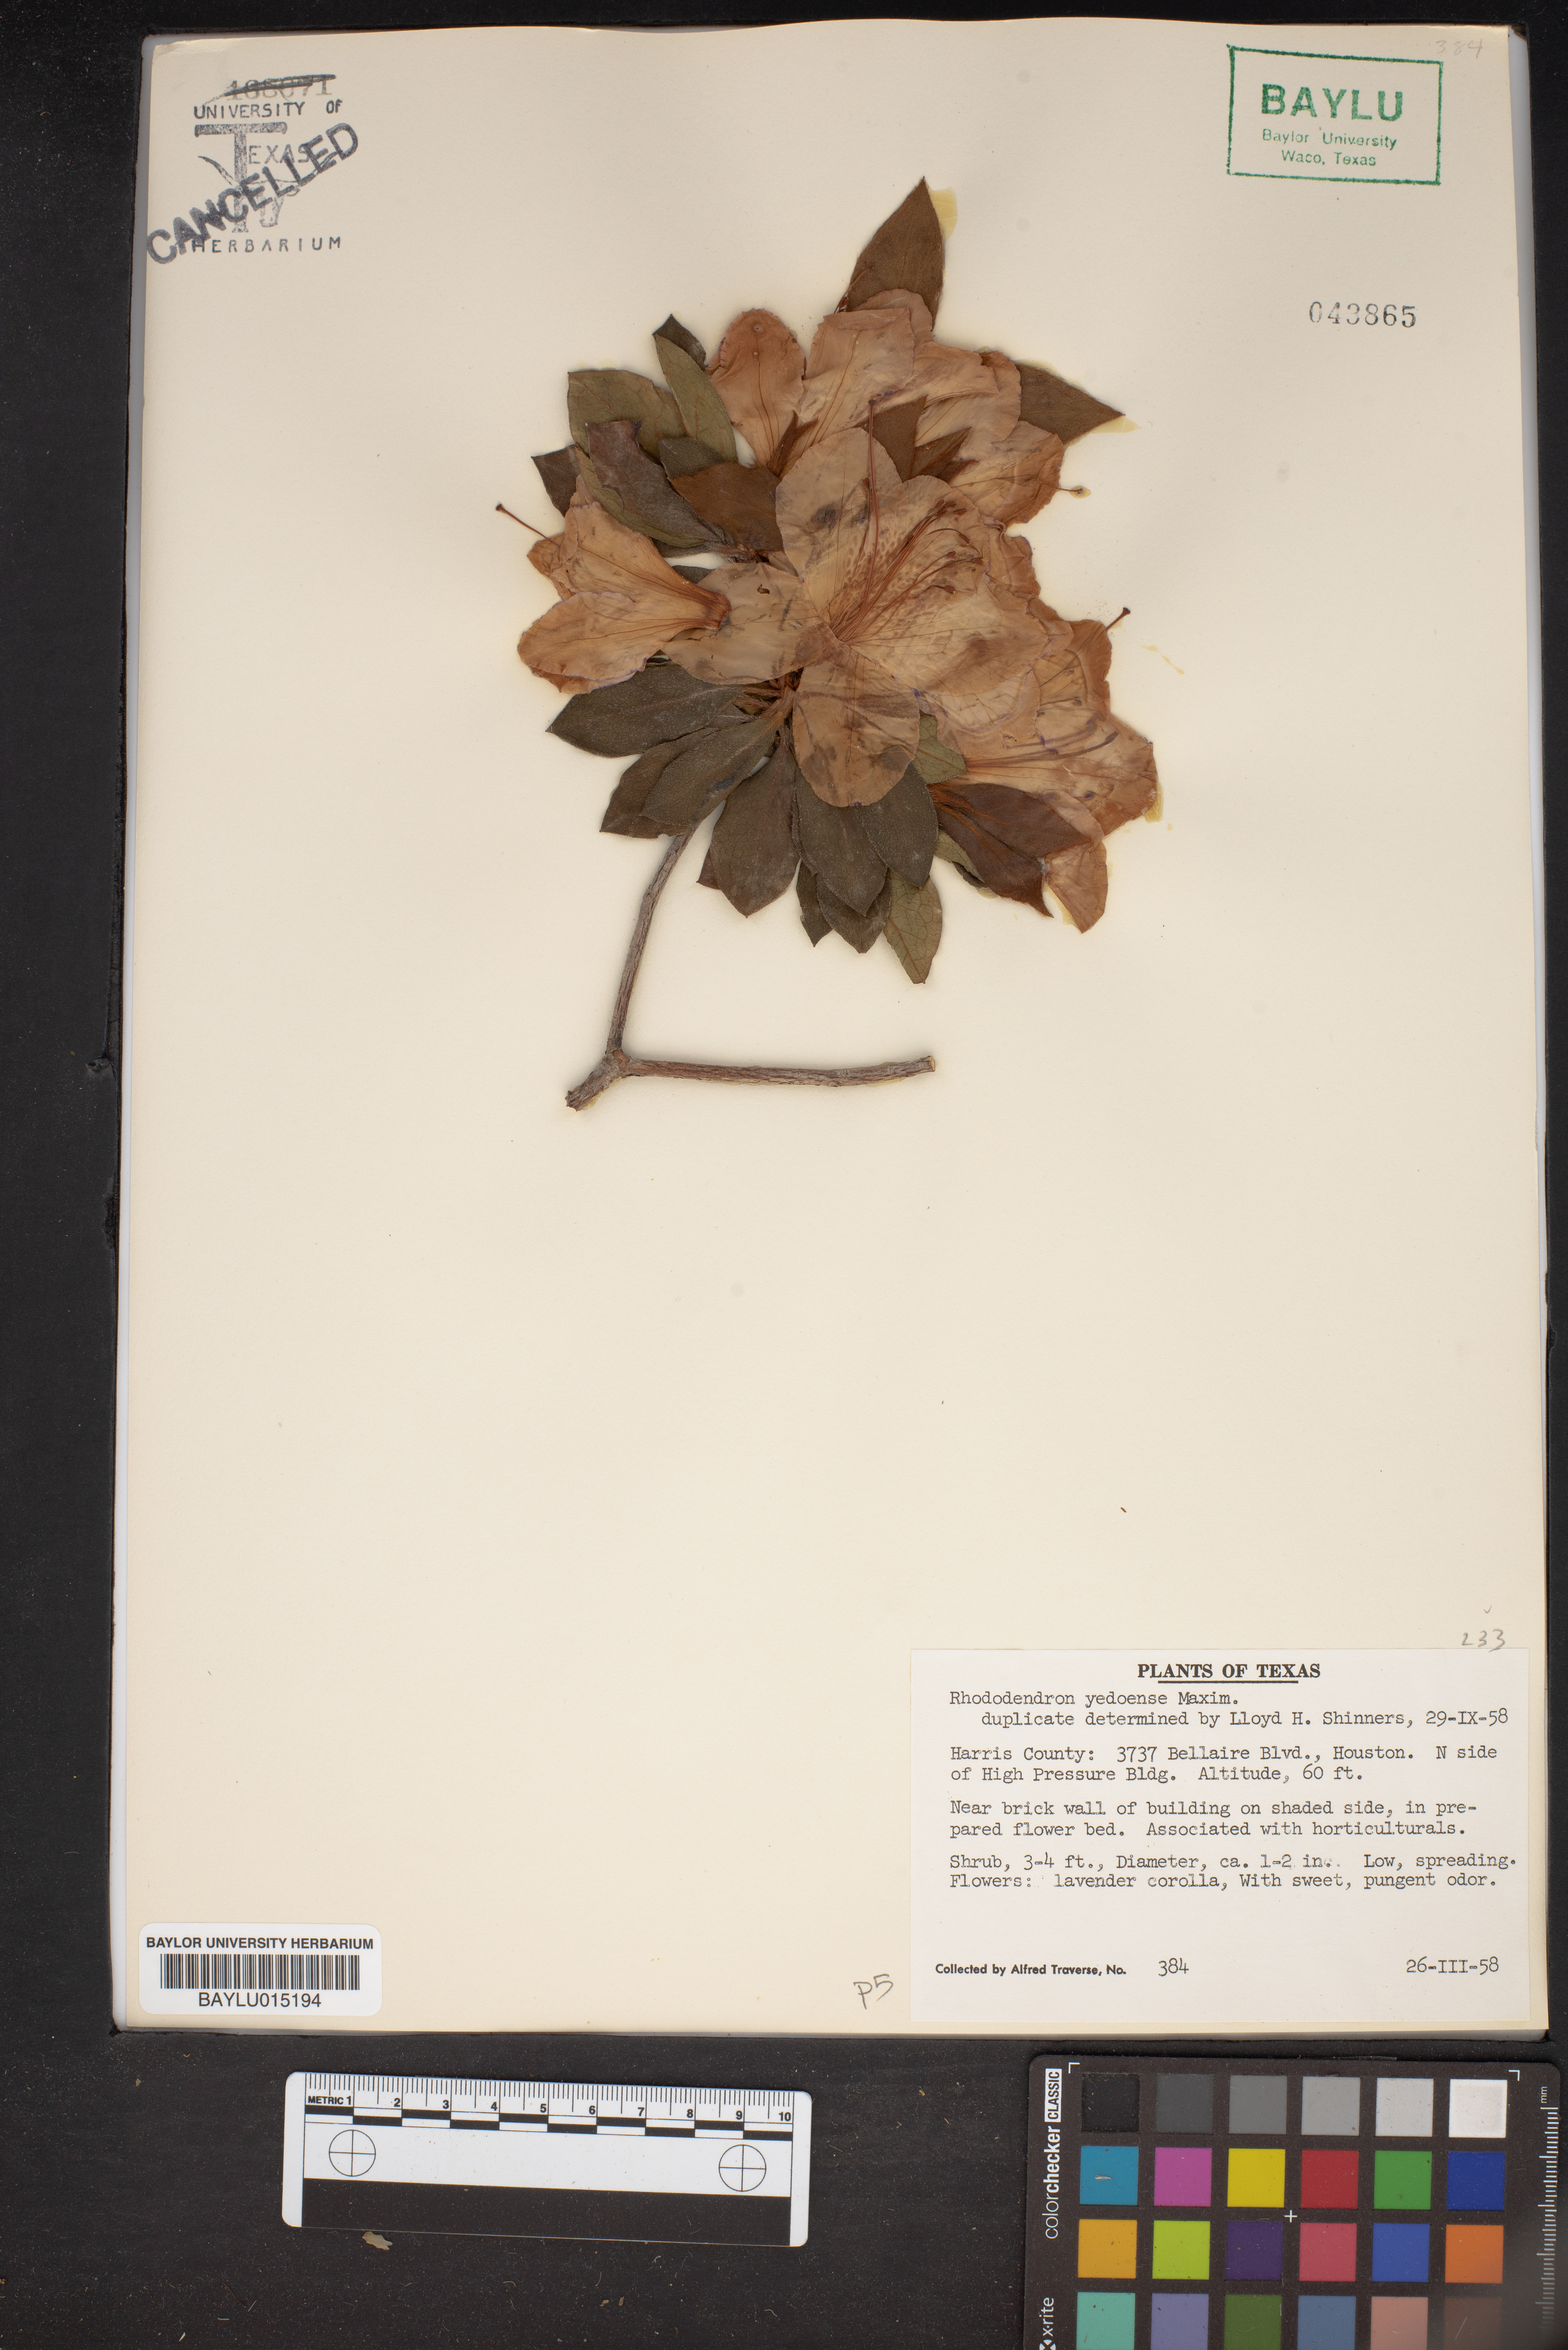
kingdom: Plantae
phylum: Tracheophyta
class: Magnoliopsida
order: Ericales
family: Ericaceae
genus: Rhododendron
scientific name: Rhododendron yedoense
